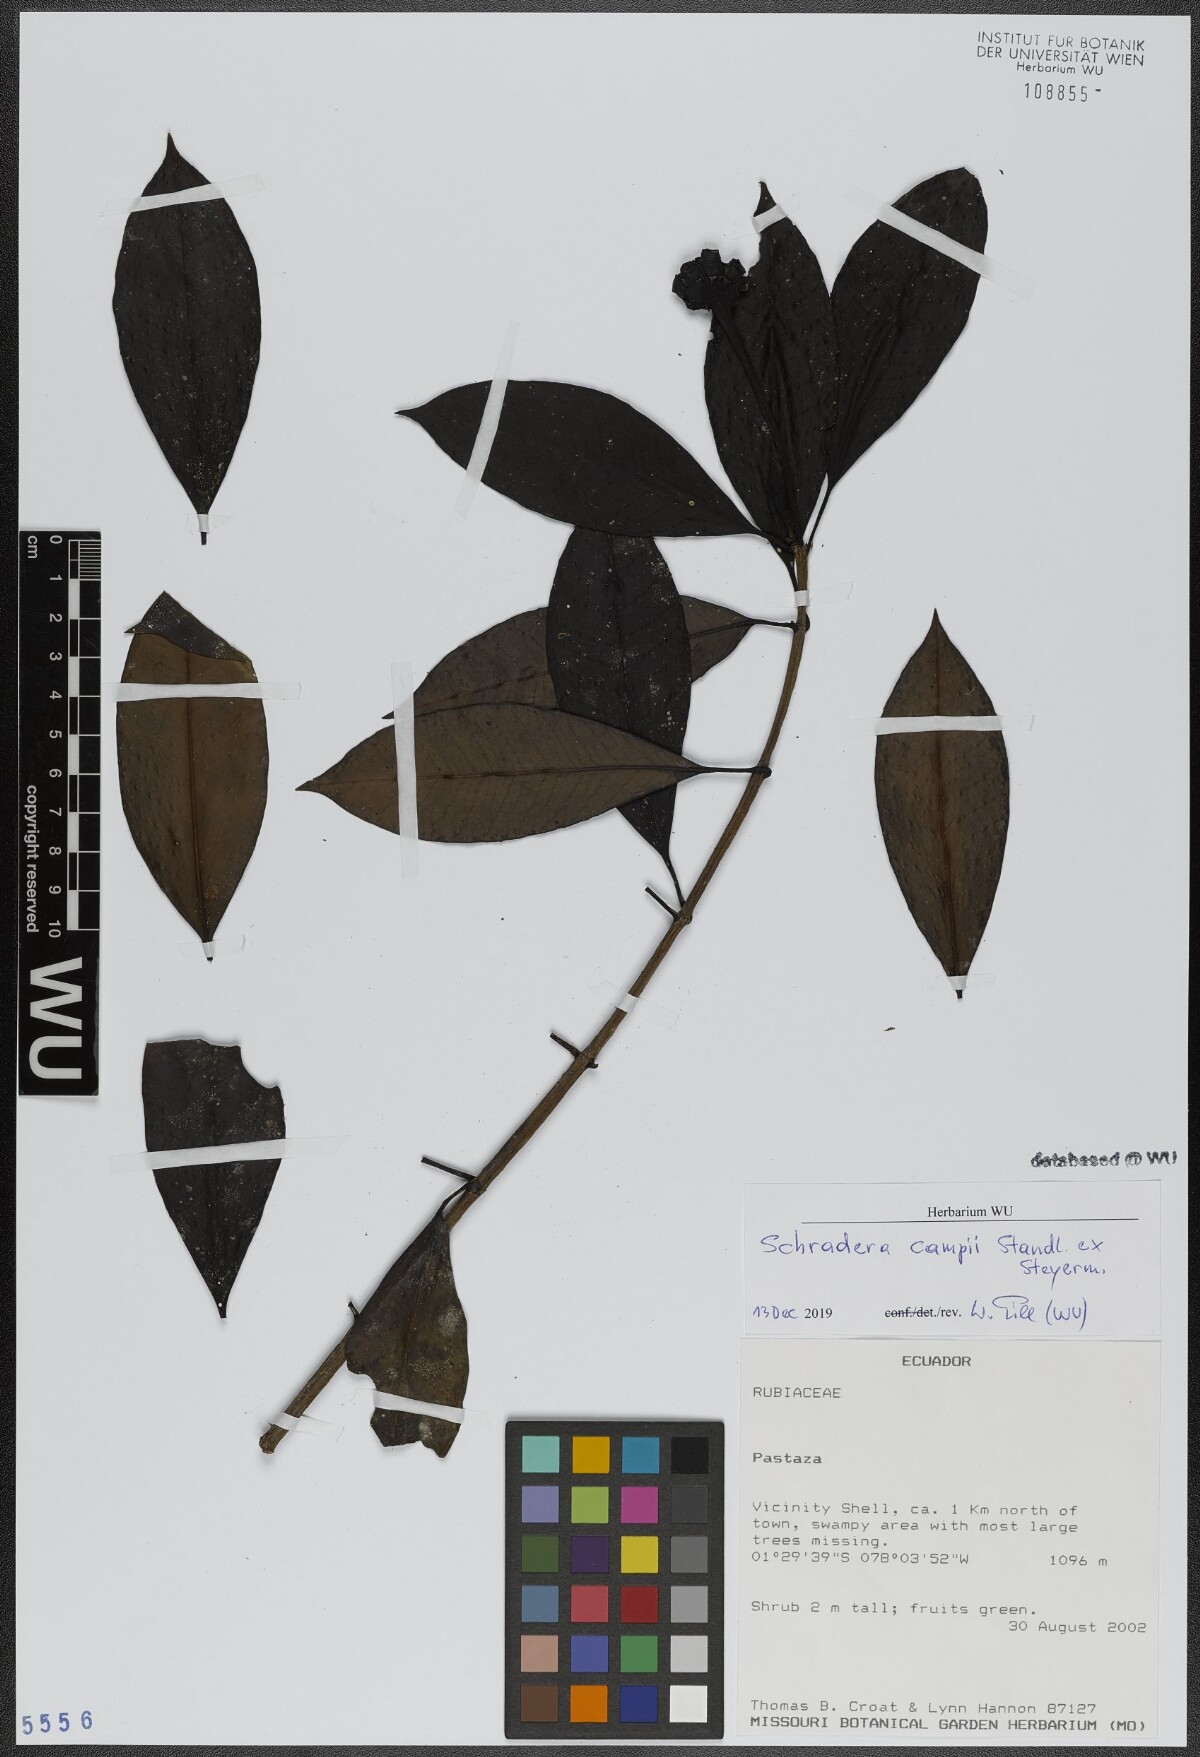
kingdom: Plantae
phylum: Tracheophyta
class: Magnoliopsida
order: Gentianales
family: Rubiaceae
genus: Schradera
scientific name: Schradera campii
